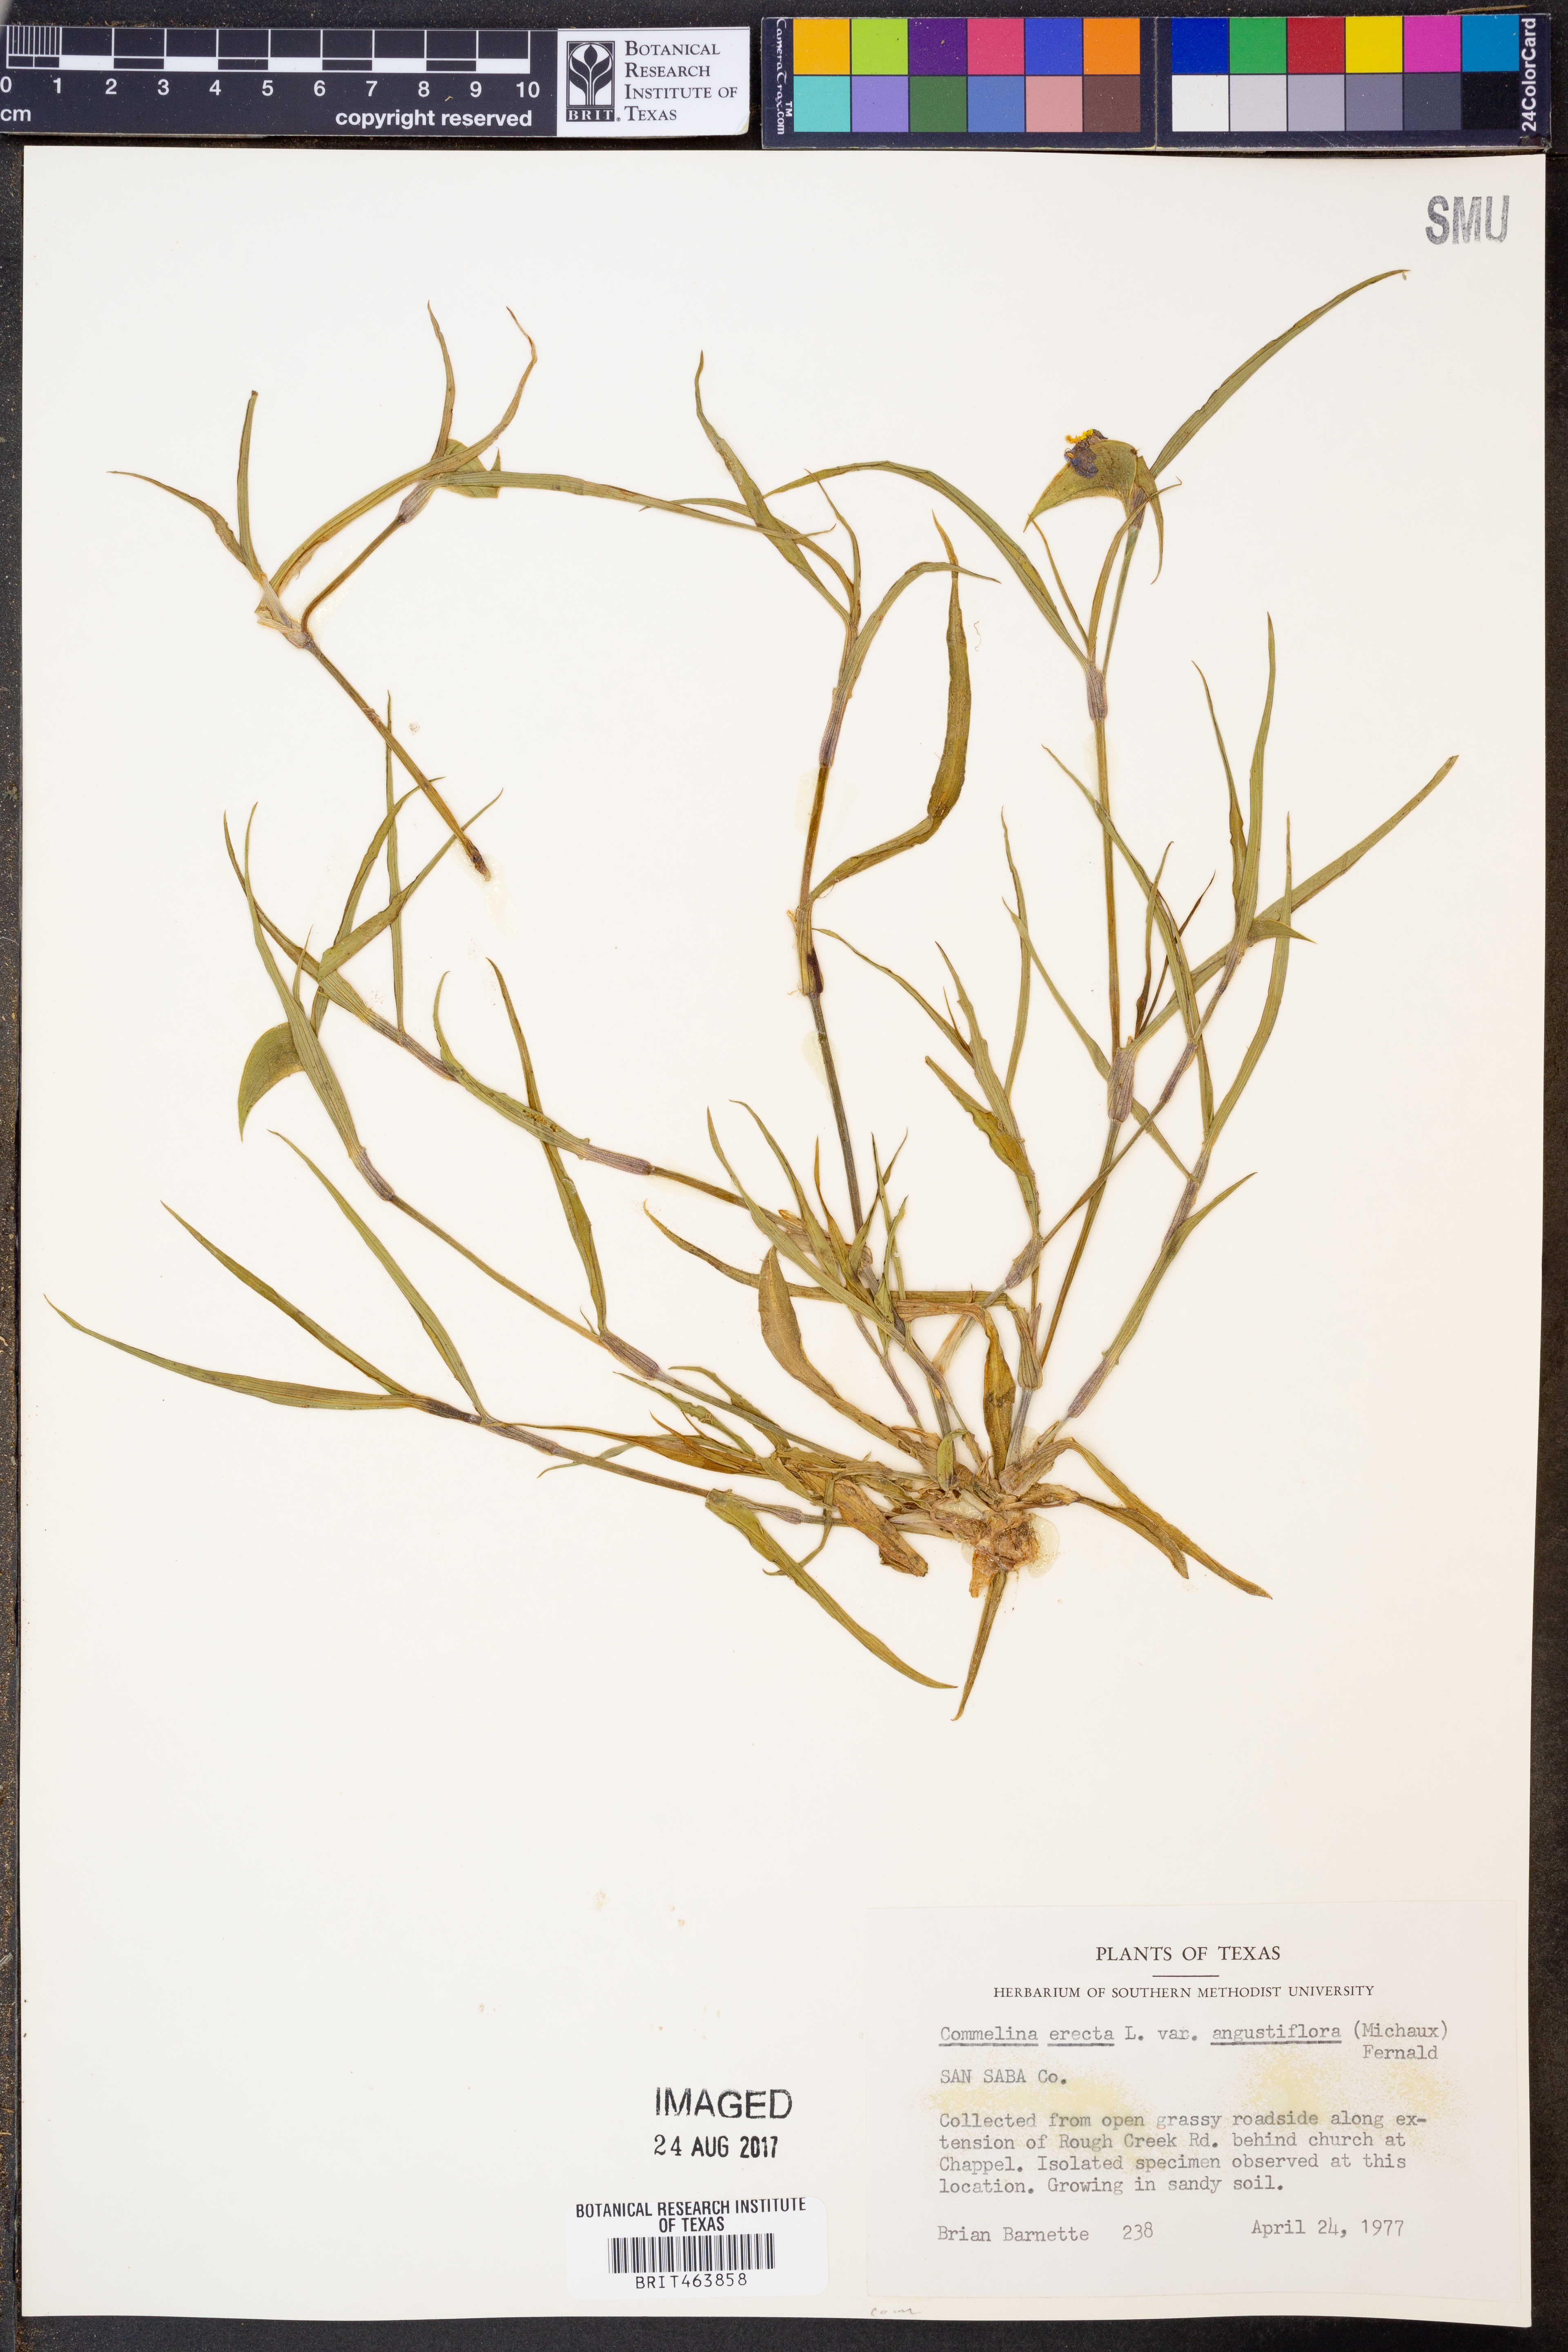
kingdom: Plantae
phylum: Tracheophyta
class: Liliopsida
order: Commelinales
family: Commelinaceae
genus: Commelina
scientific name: Commelina erecta
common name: Blousel blommetjie
